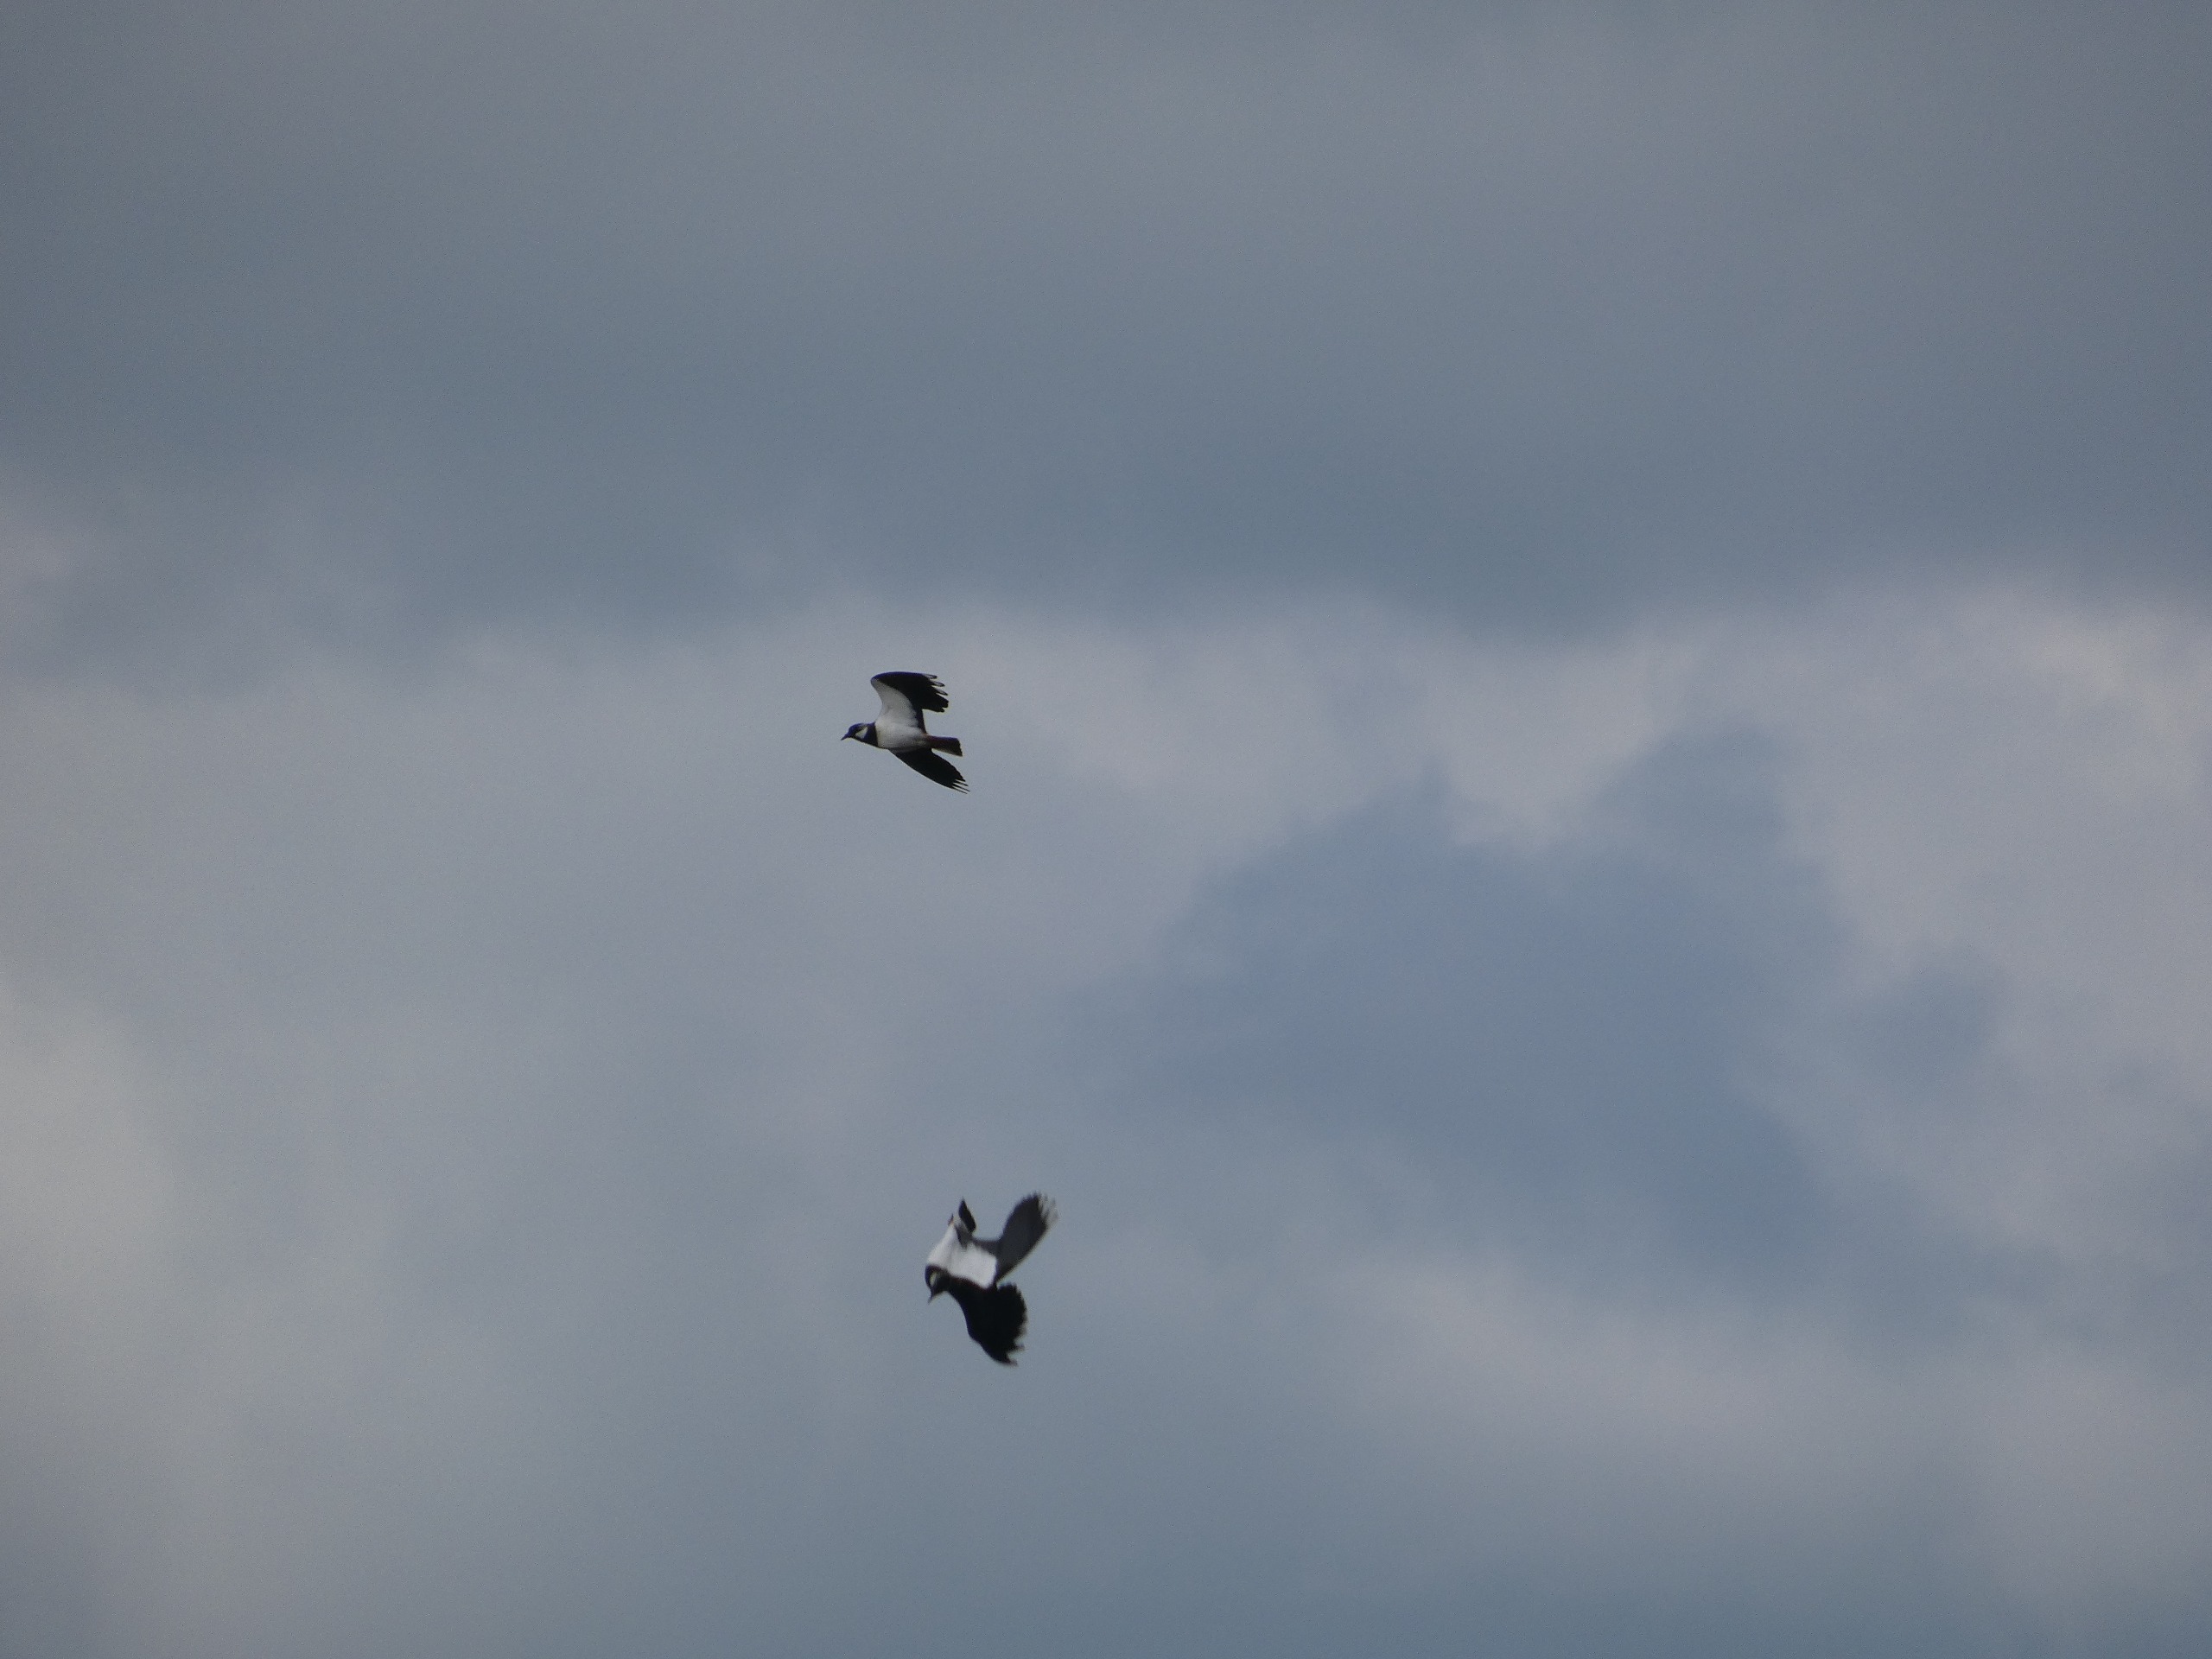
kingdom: Animalia
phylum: Chordata
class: Aves
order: Charadriiformes
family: Charadriidae
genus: Vanellus
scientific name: Vanellus vanellus
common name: Vibe
